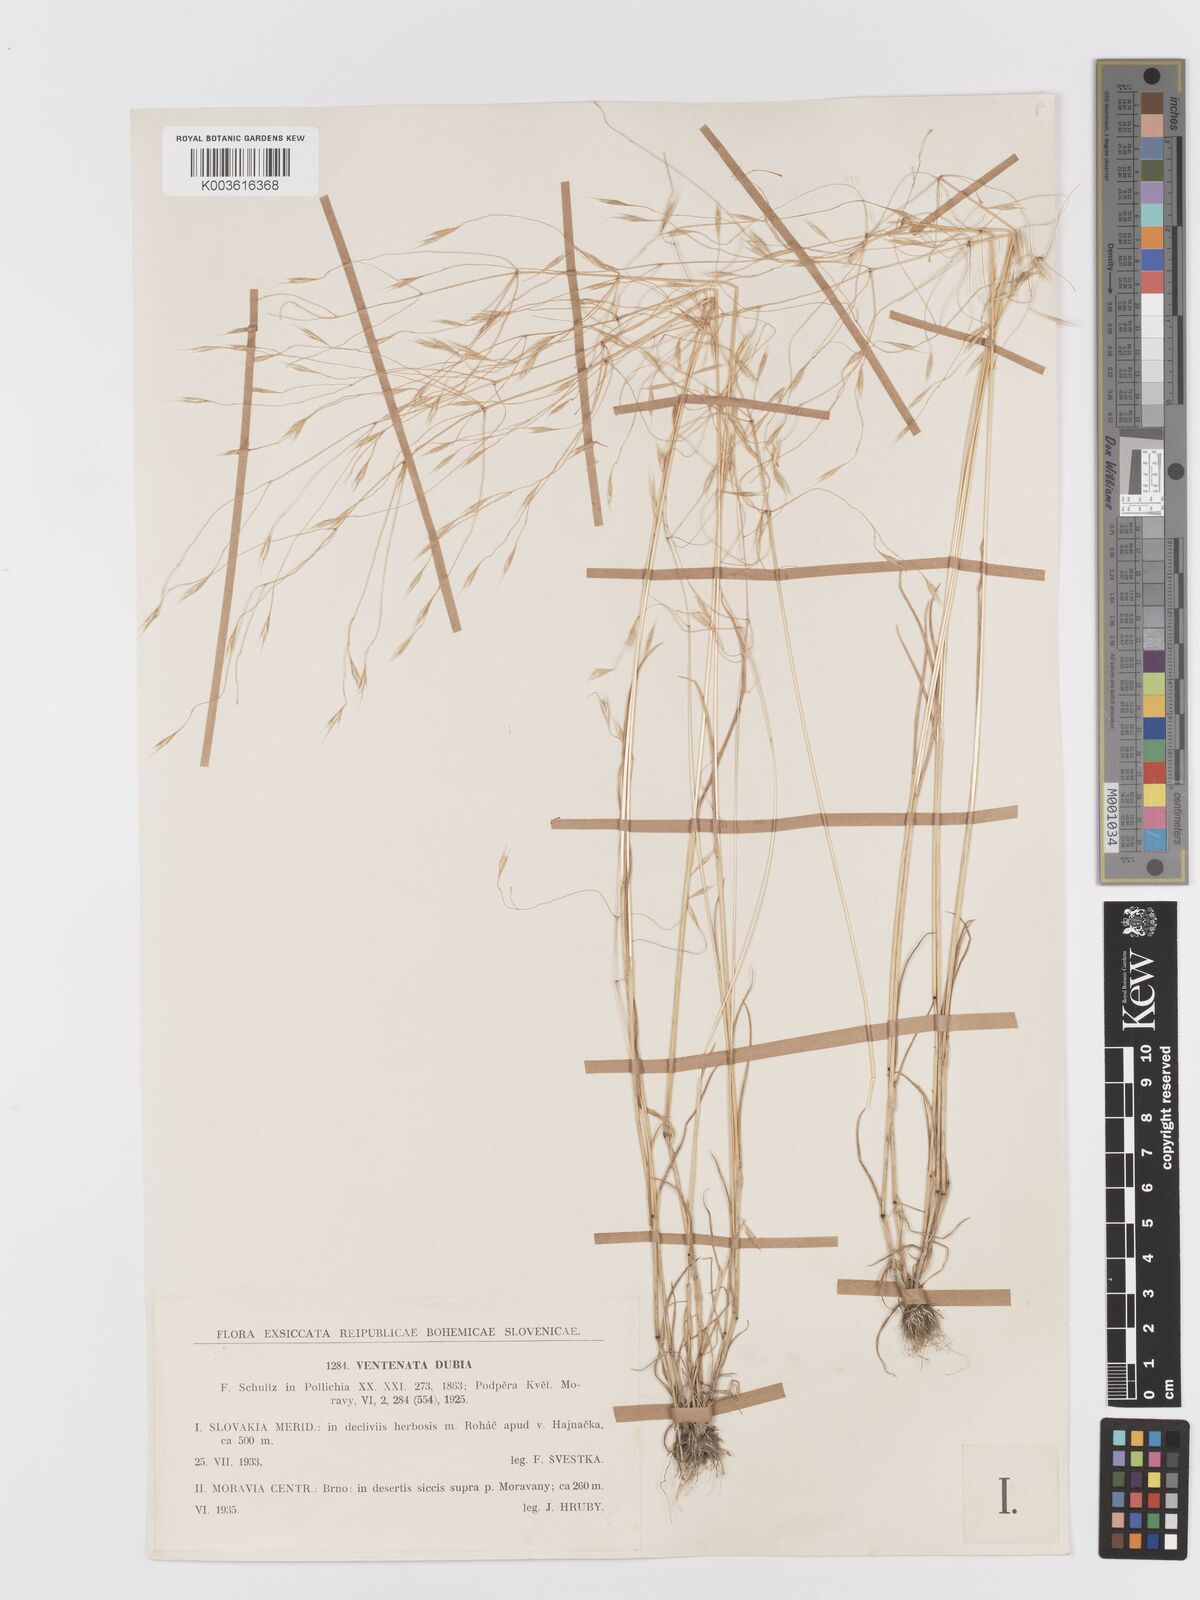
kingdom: Plantae
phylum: Tracheophyta
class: Liliopsida
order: Poales
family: Poaceae
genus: Ventenata
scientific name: Ventenata dubia
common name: North africa grass
